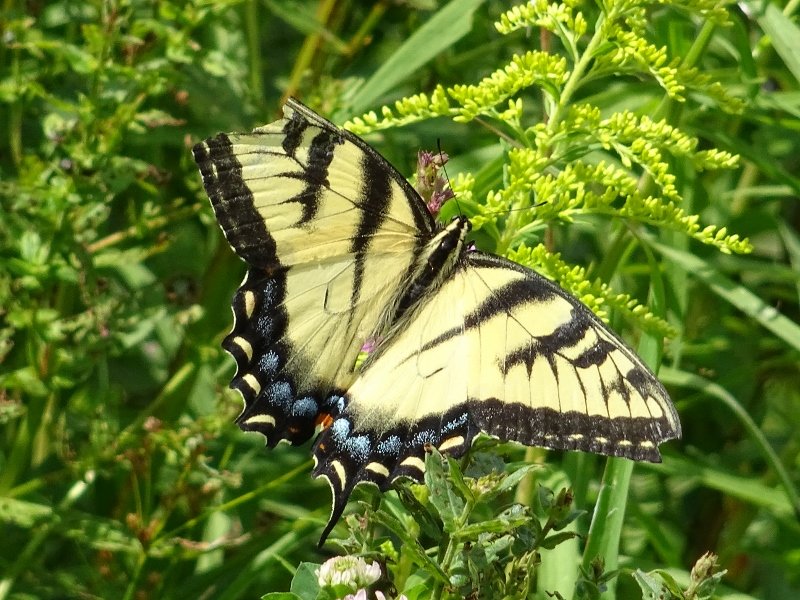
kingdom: Animalia
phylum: Arthropoda
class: Insecta
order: Lepidoptera
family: Papilionidae
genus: Pterourus
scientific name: Pterourus glaucus
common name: Eastern Tiger Swallowtail
